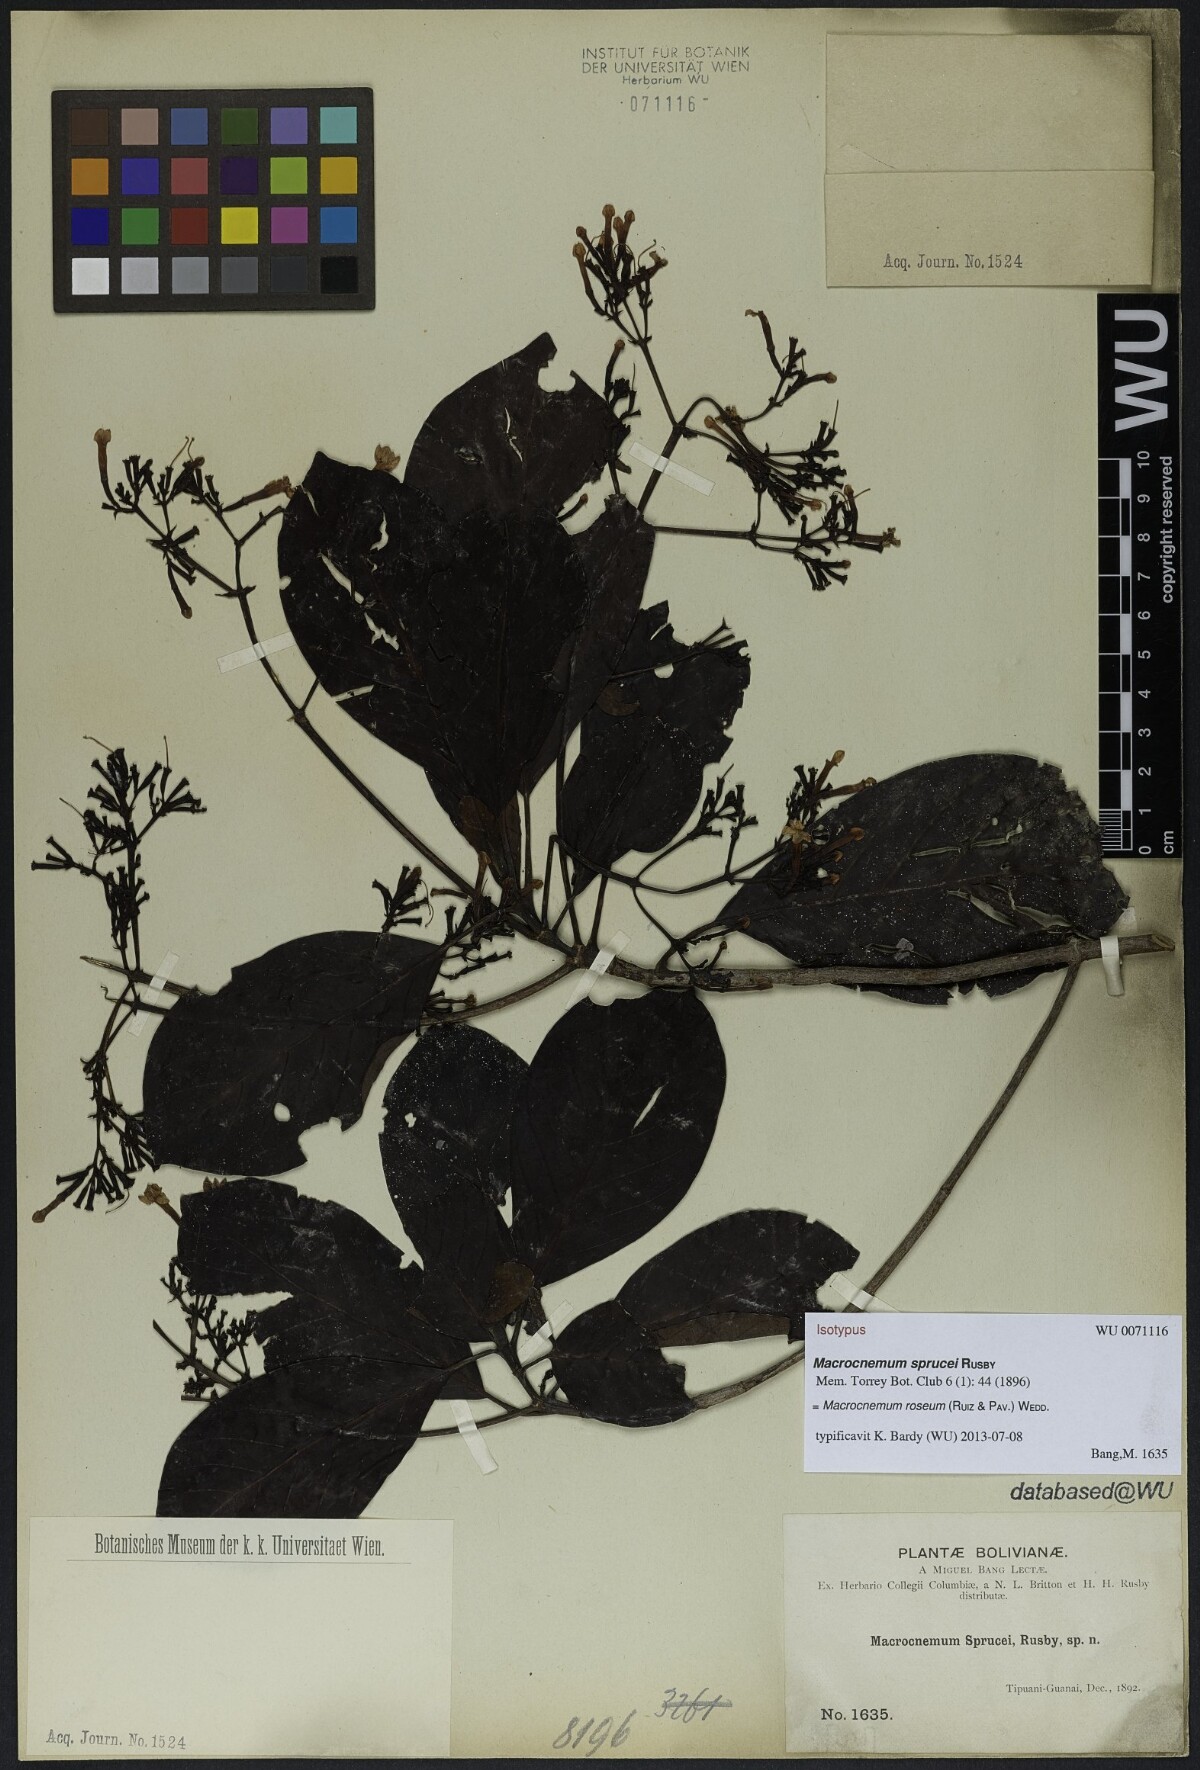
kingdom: Plantae
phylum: Tracheophyta
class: Magnoliopsida
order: Gentianales
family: Rubiaceae
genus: Macrocnemum
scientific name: Macrocnemum roseum
